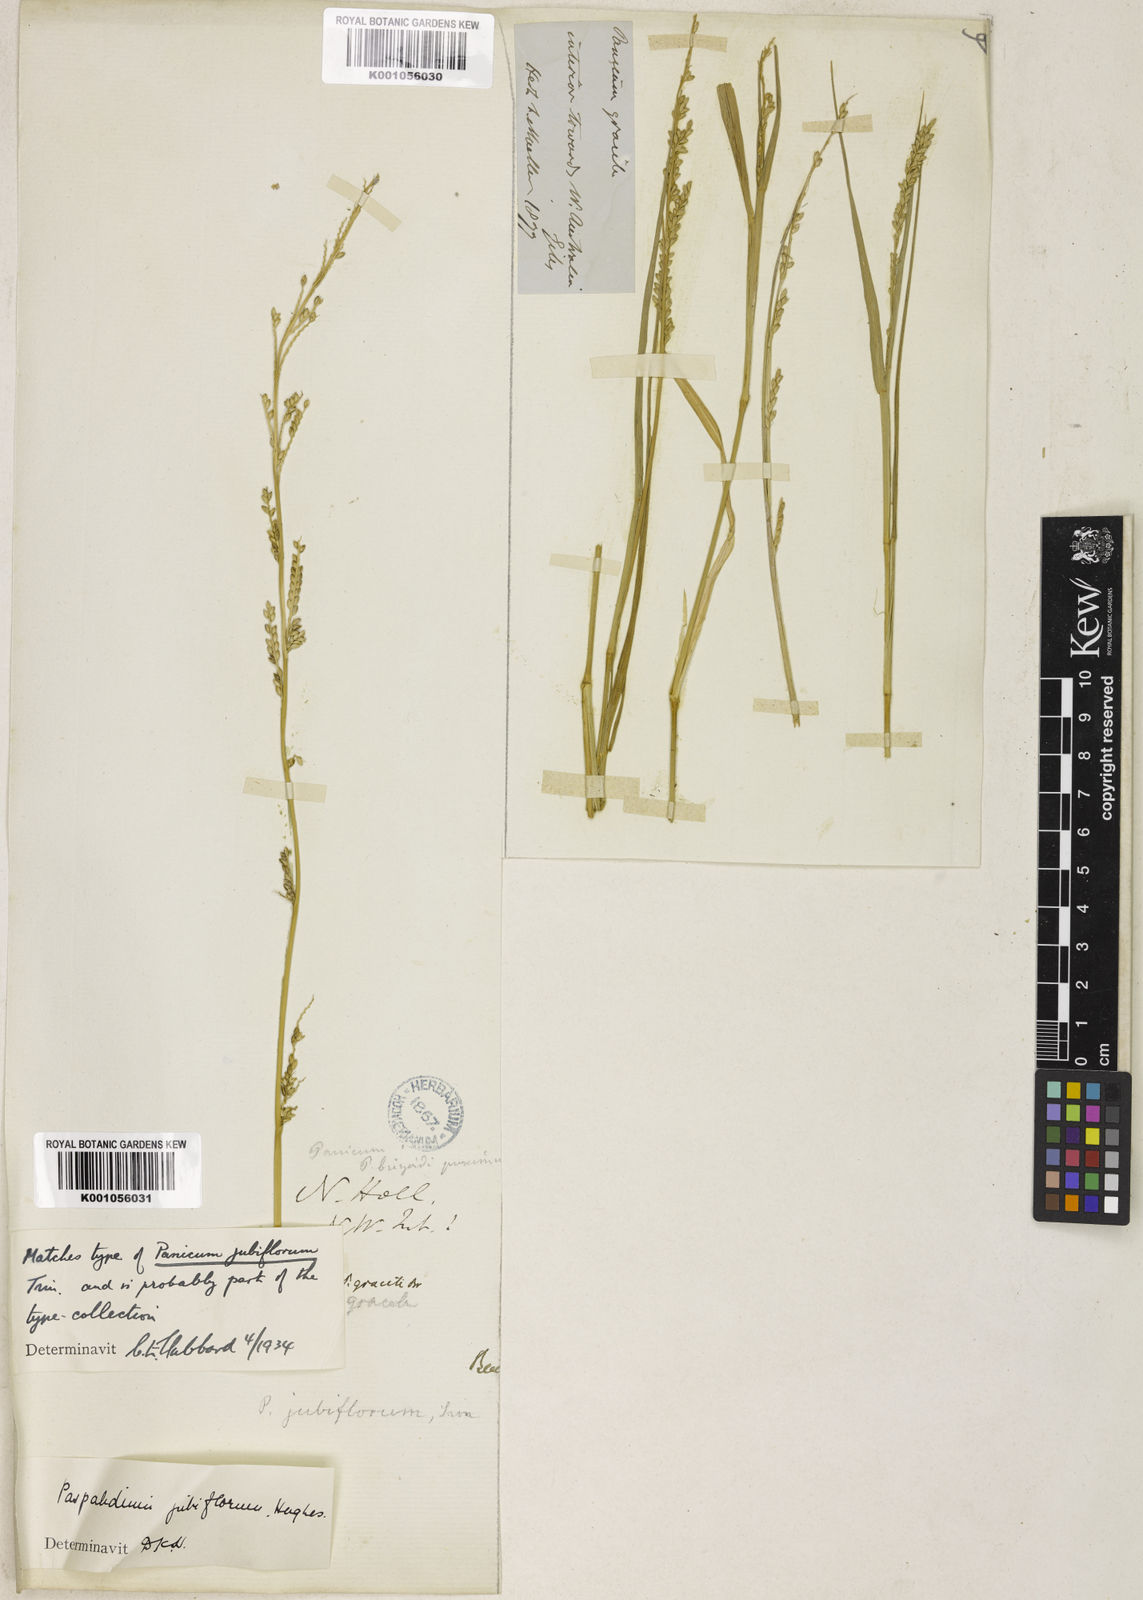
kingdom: Plantae
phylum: Tracheophyta
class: Liliopsida
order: Poales
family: Poaceae
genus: Setaria
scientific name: Setaria jubiflora
